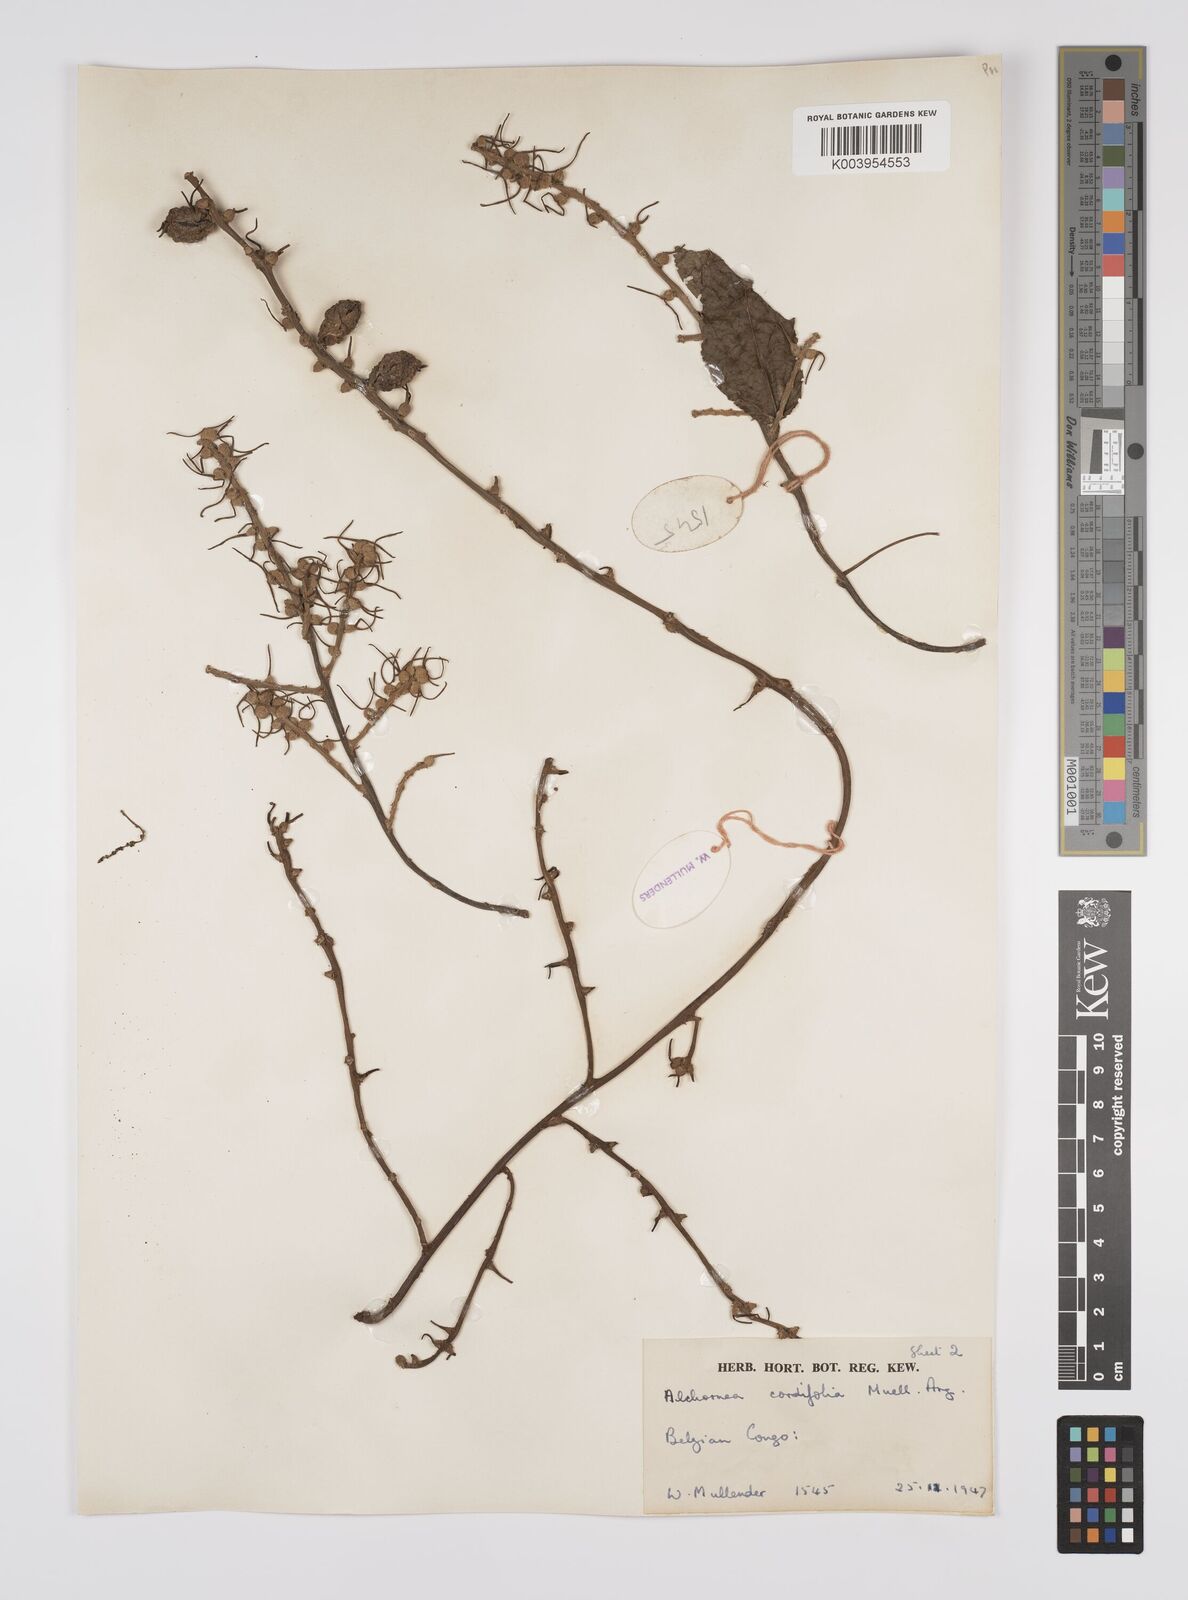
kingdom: Plantae
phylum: Tracheophyta
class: Magnoliopsida
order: Malpighiales
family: Euphorbiaceae
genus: Alchornea
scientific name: Alchornea cordifolia
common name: Christmasbush
